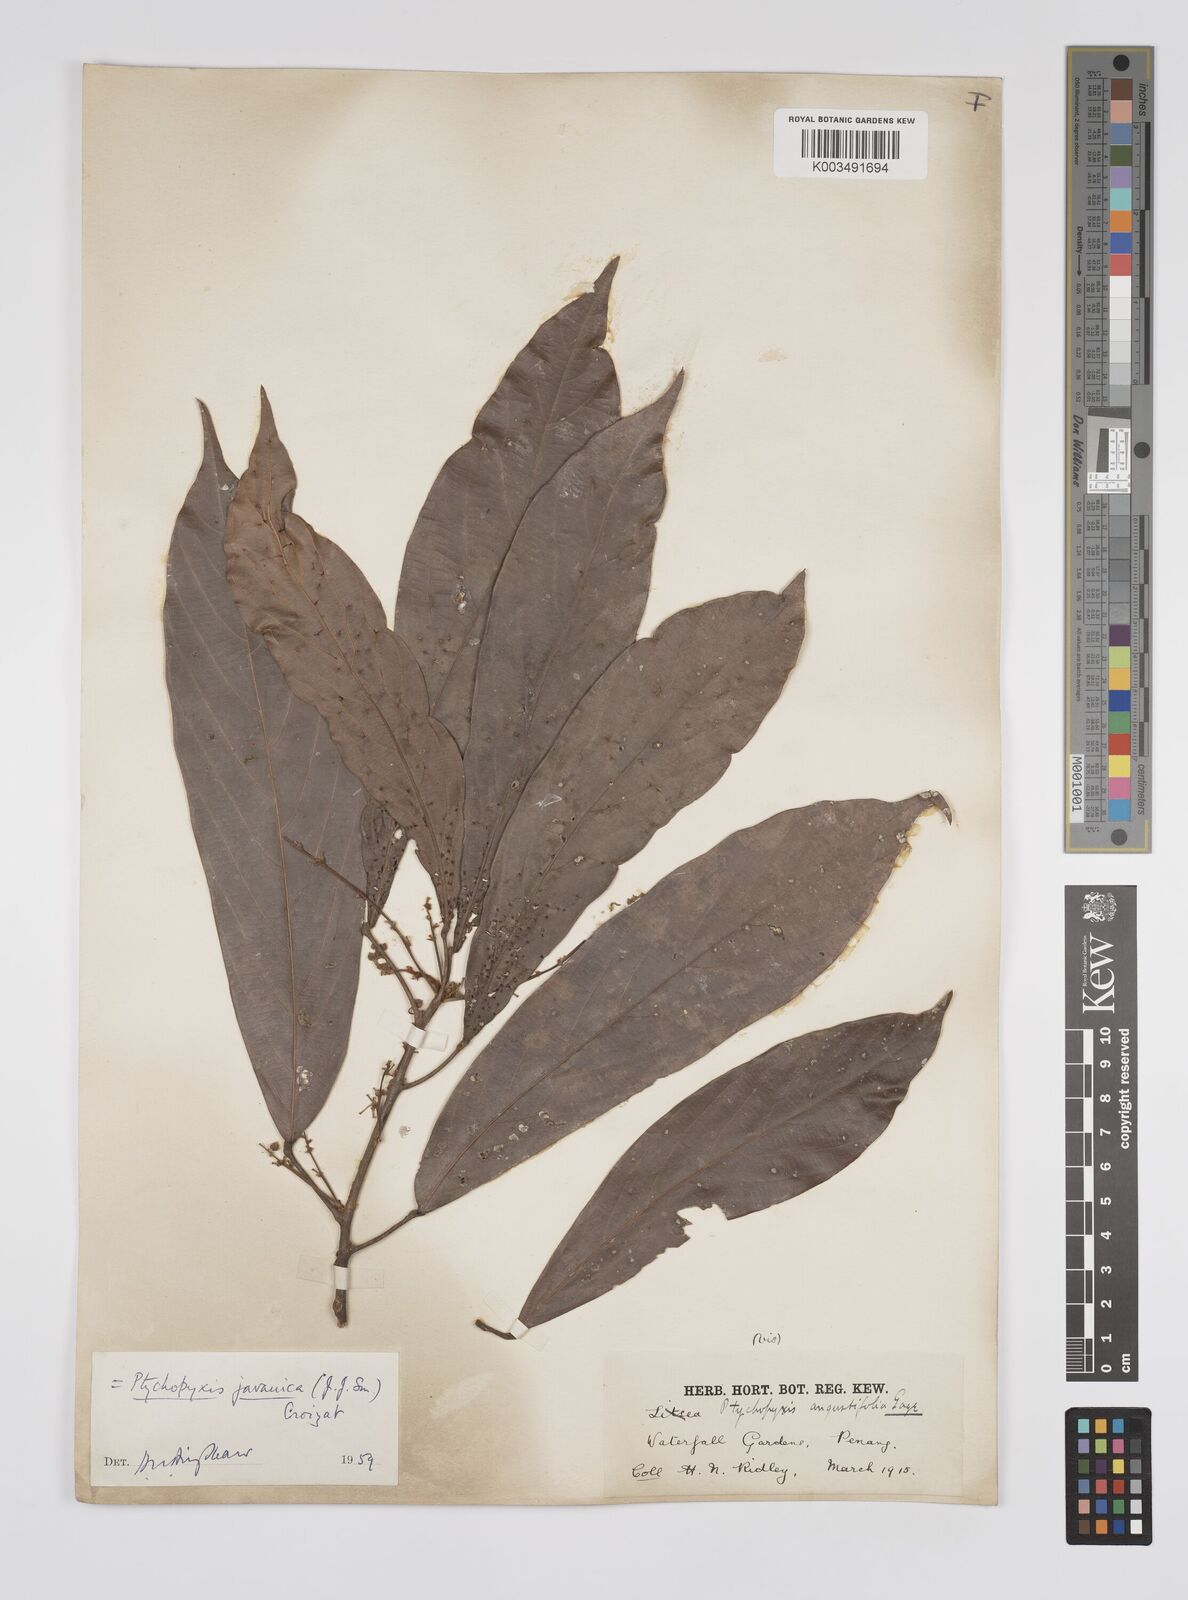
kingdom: Plantae
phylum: Tracheophyta
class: Magnoliopsida
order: Malpighiales
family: Euphorbiaceae
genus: Ptychopyxis
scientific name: Ptychopyxis javanica
